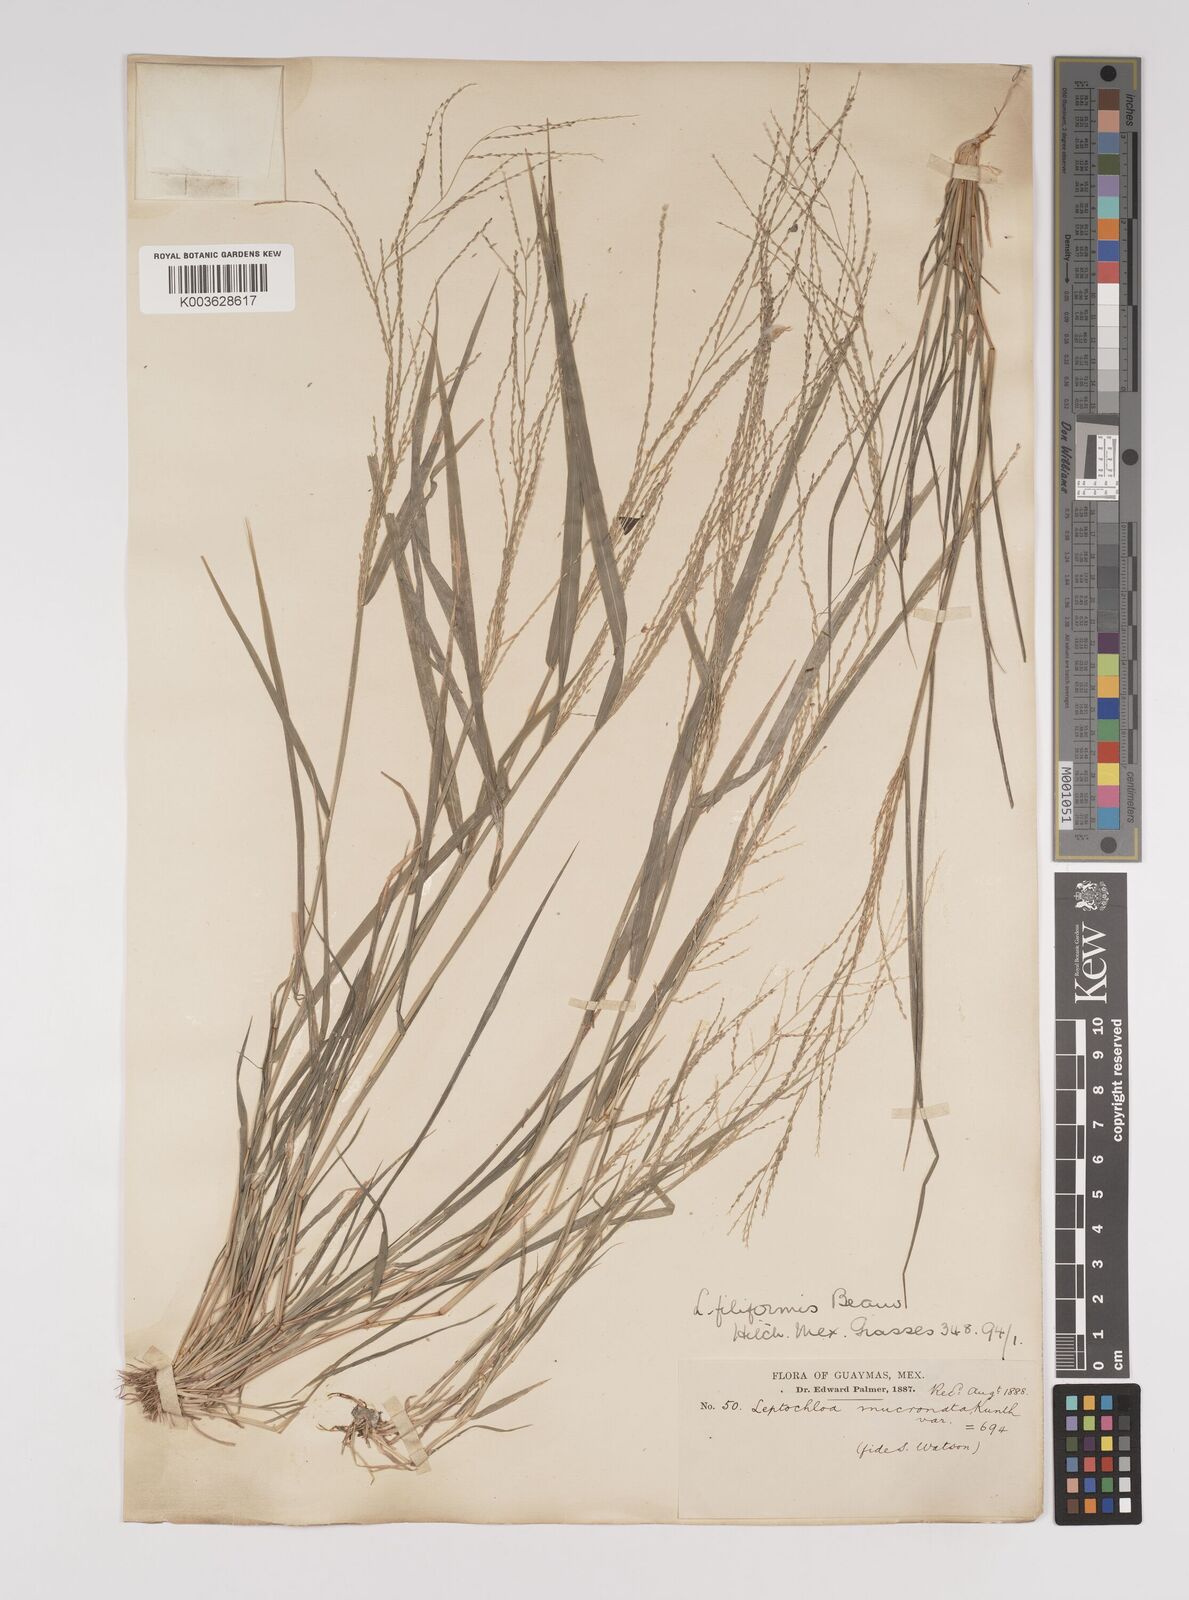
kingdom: Plantae
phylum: Tracheophyta
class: Liliopsida
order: Poales
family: Poaceae
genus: Leptochloa
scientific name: Leptochloa panicea
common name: Mucronate sprangletop
